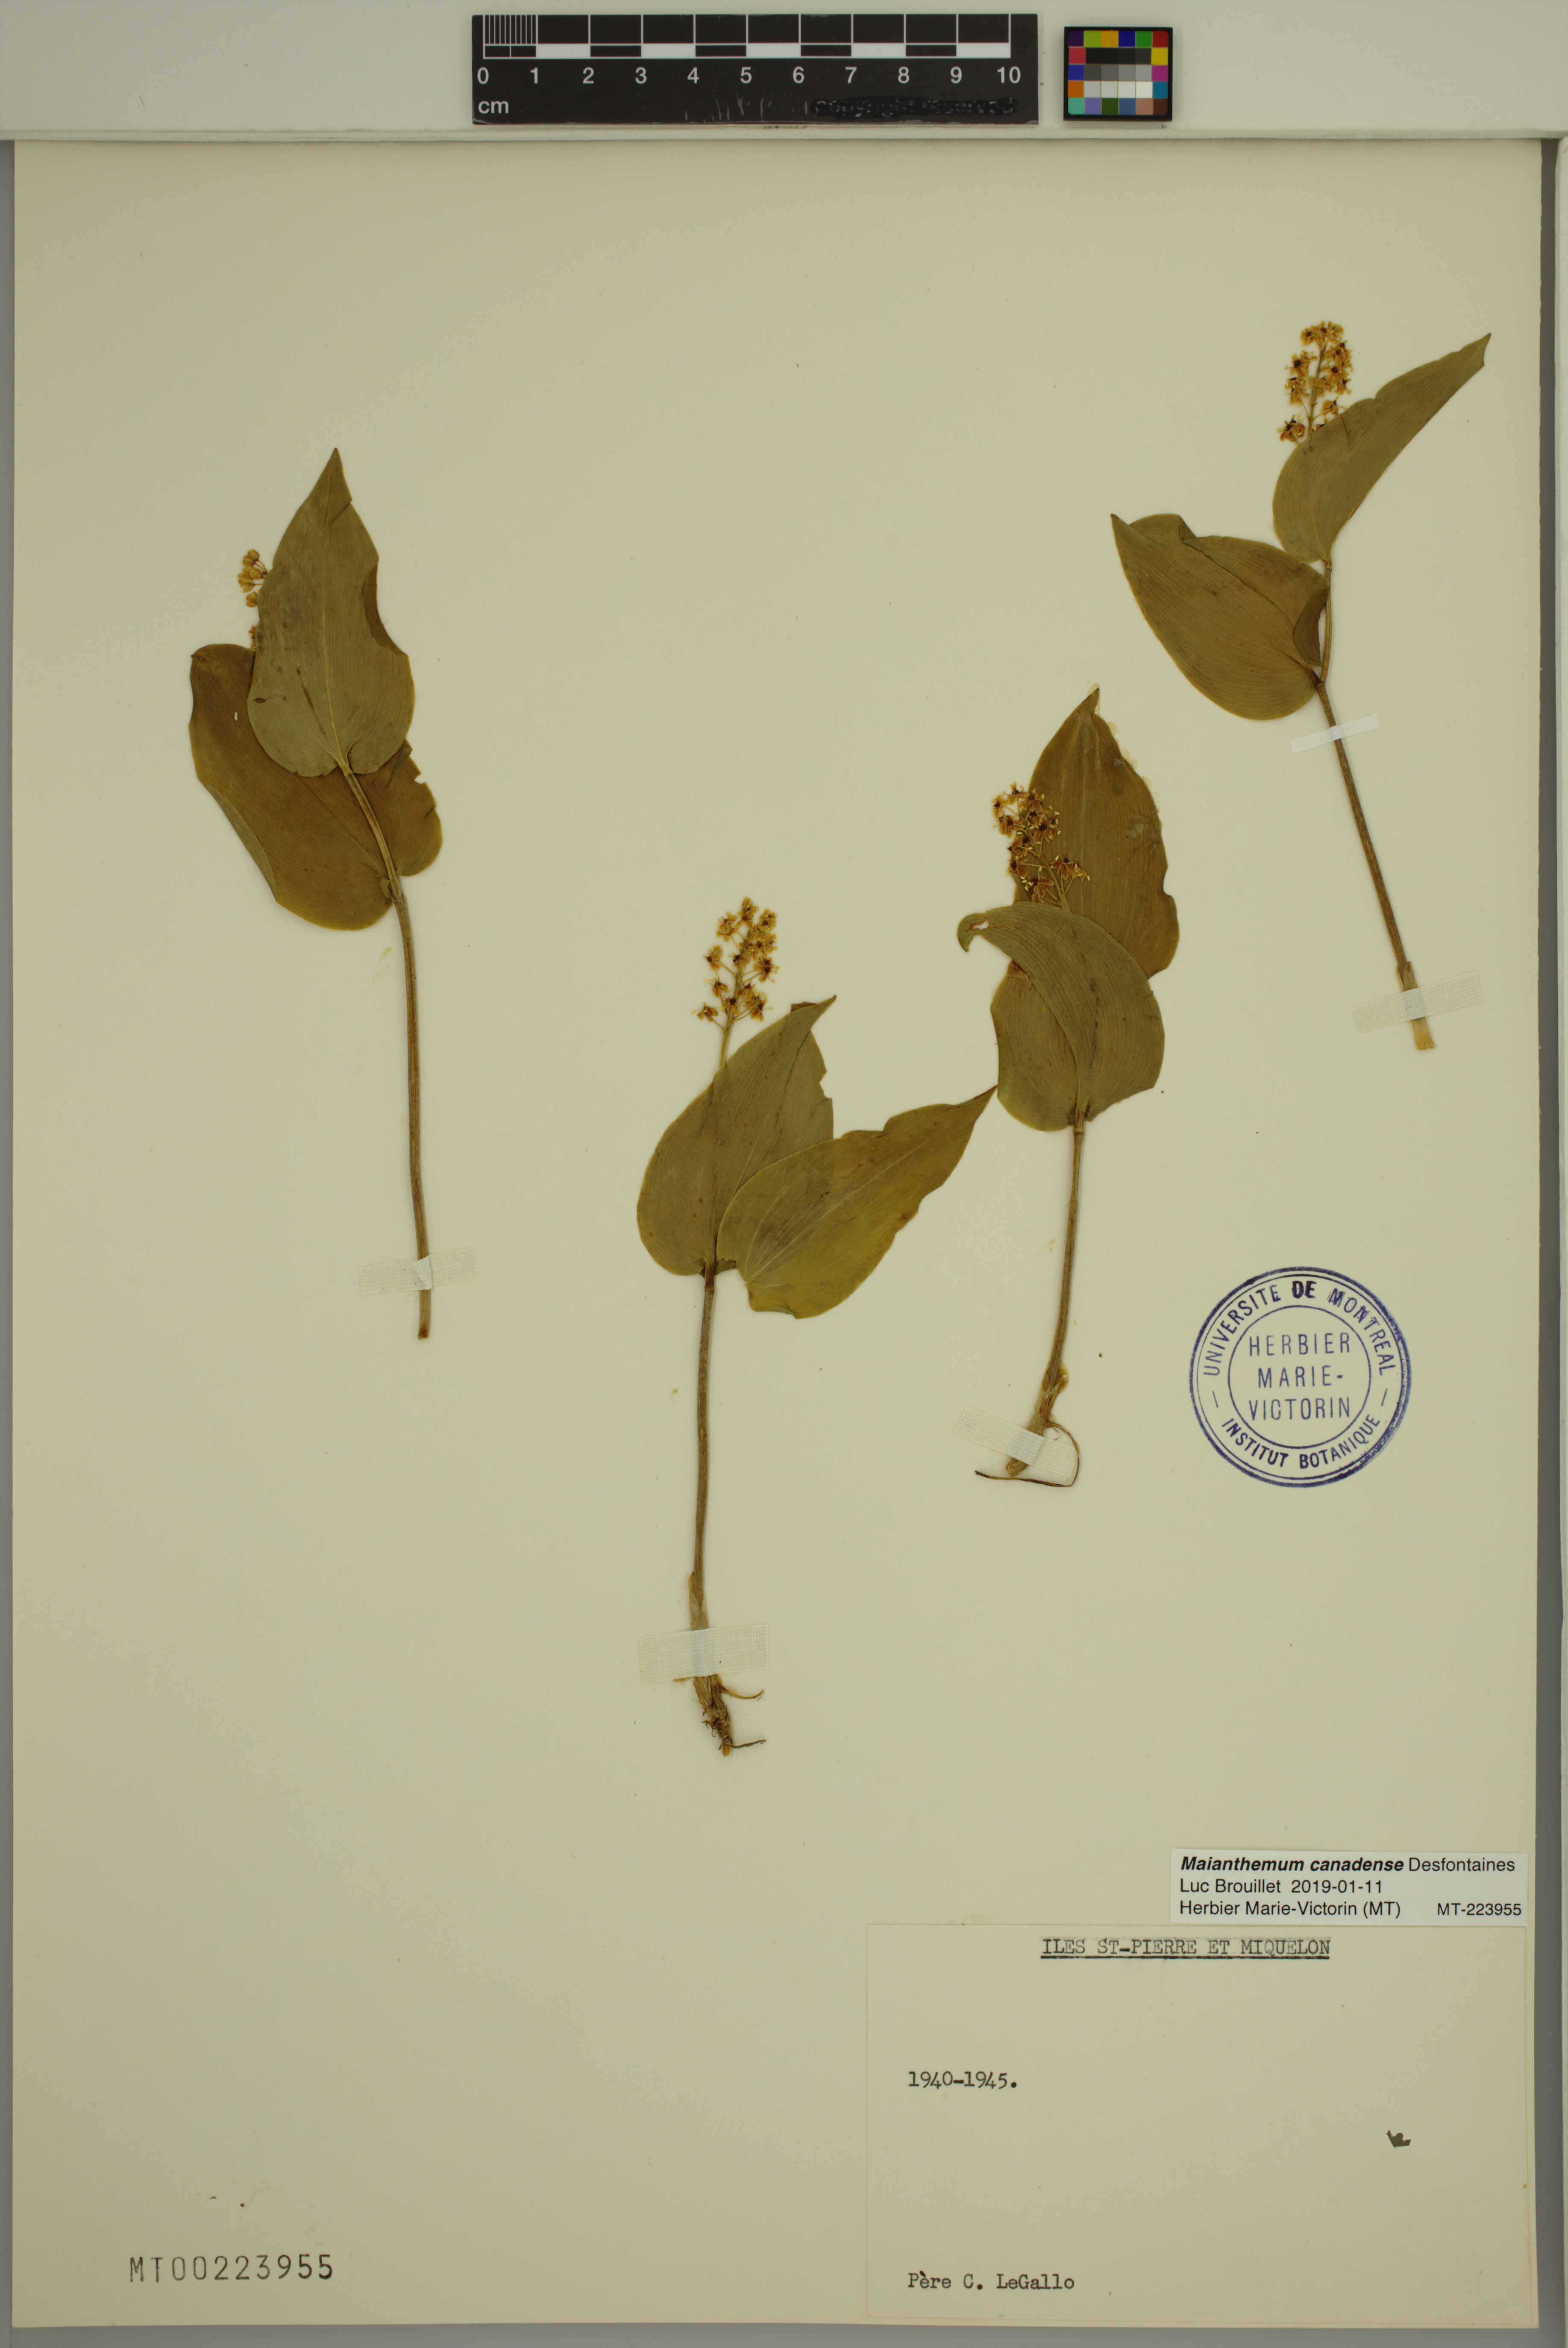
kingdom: Plantae
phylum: Tracheophyta
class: Liliopsida
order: Asparagales
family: Asparagaceae
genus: Maianthemum
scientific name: Maianthemum canadense
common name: False lily-of-the-valley
